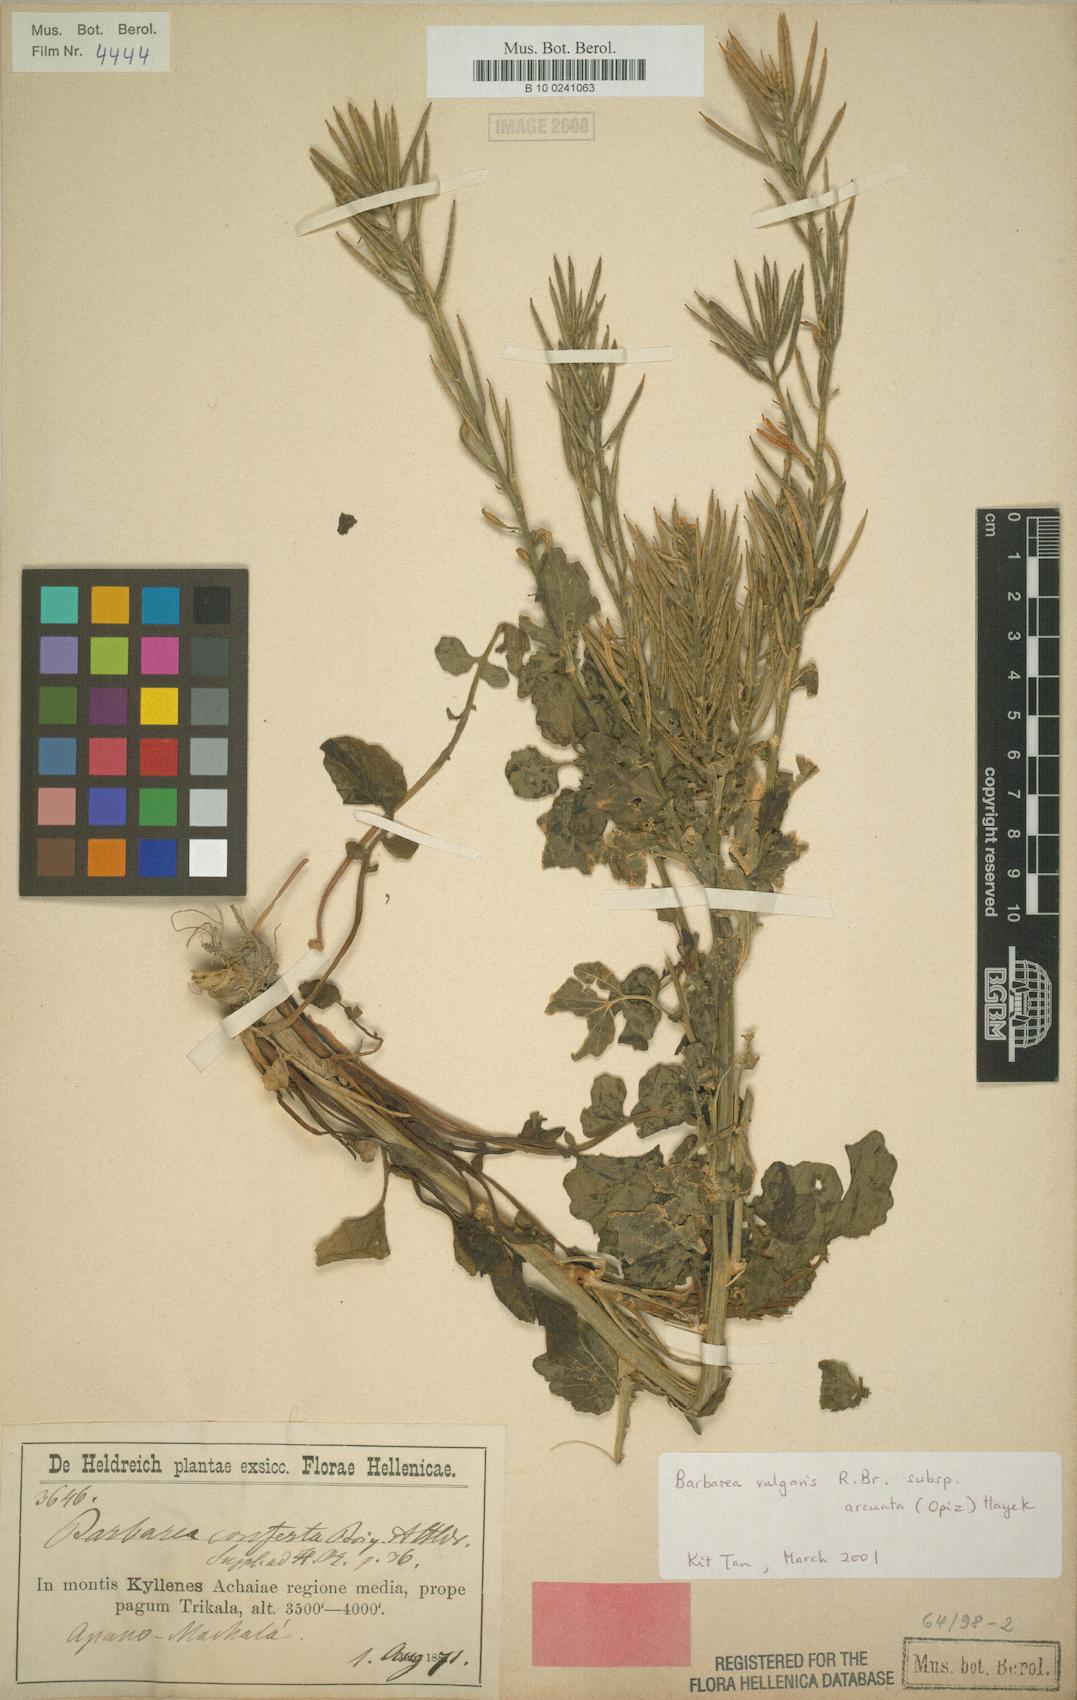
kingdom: Plantae
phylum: Tracheophyta
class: Magnoliopsida
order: Brassicales
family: Brassicaceae
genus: Barbarea
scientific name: Barbarea vulgaris
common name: Cressy-greens
